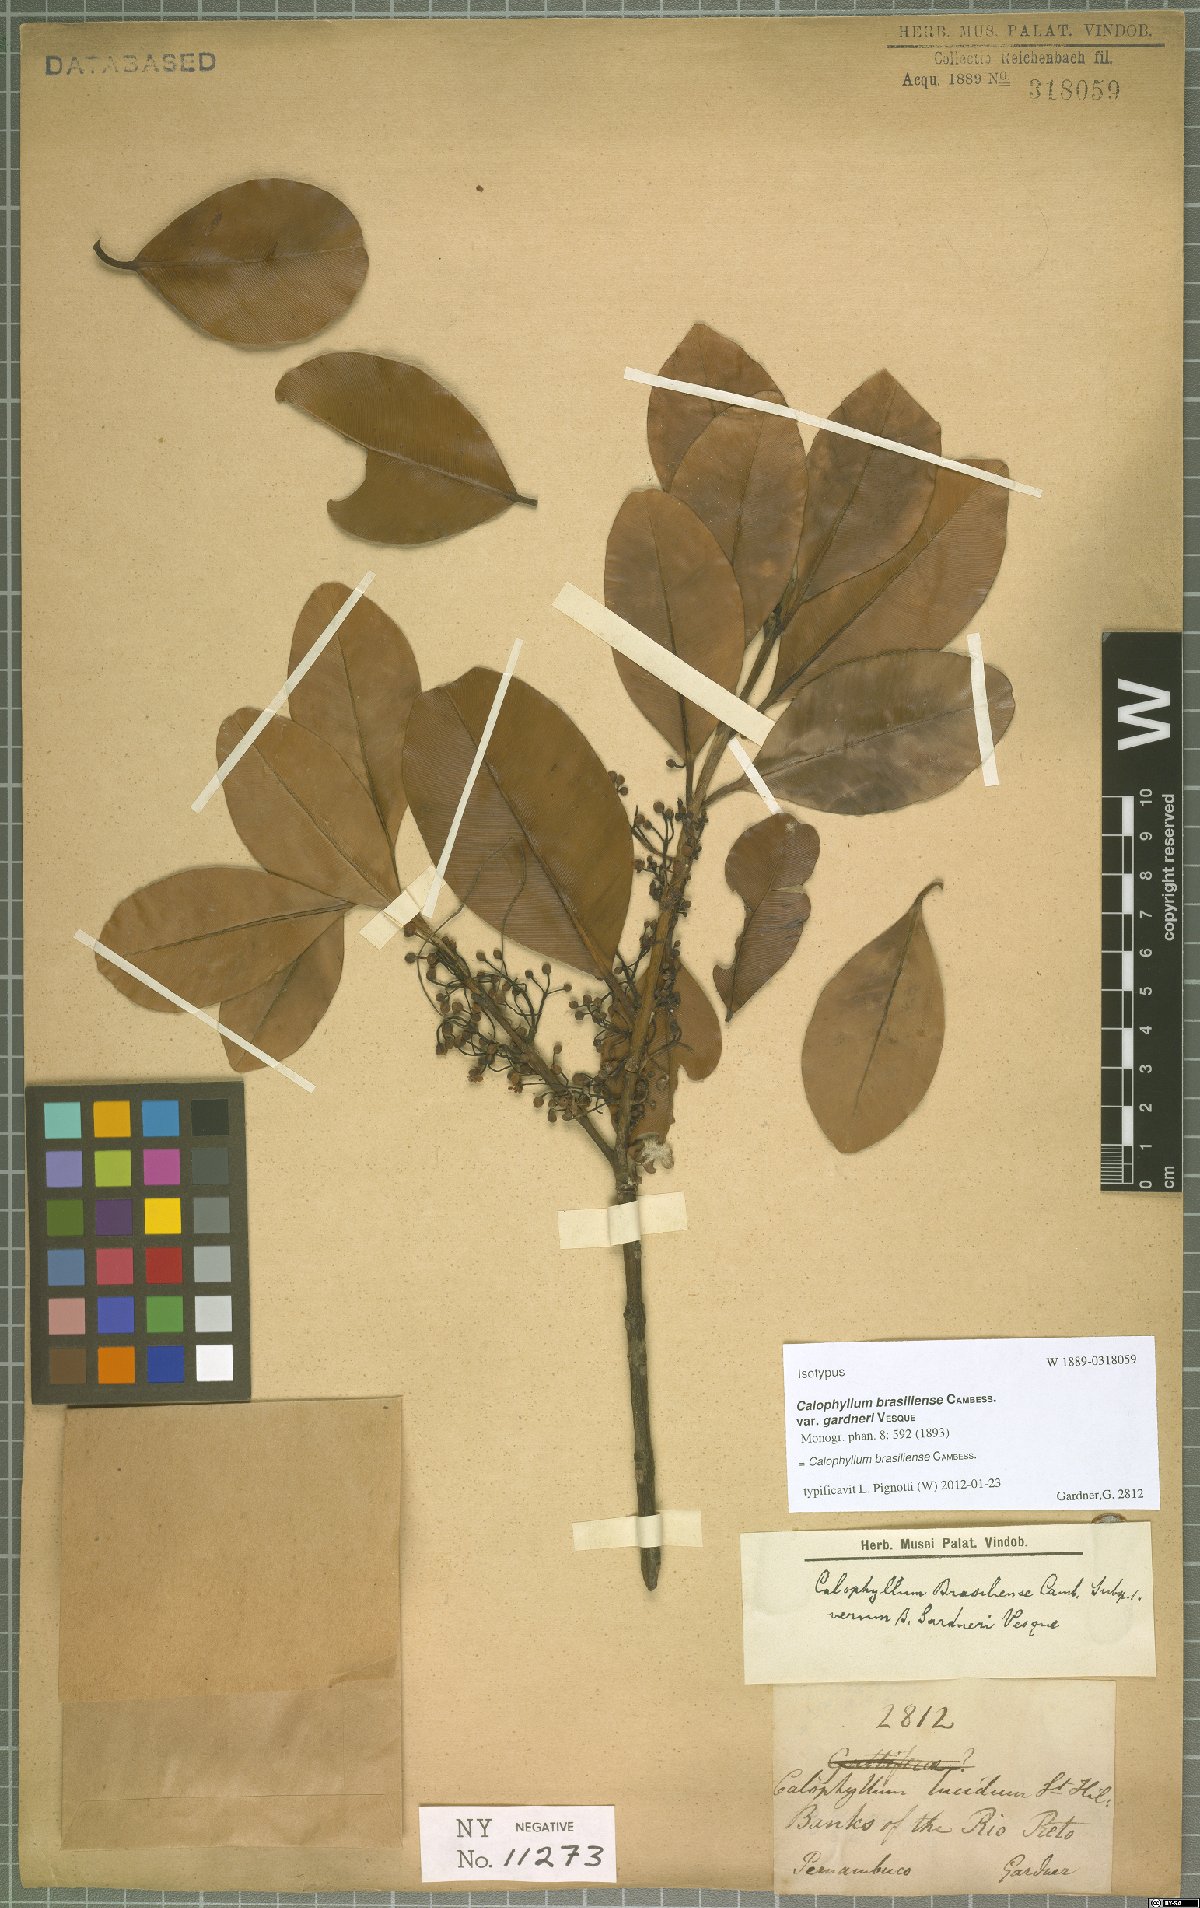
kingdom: Plantae
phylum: Tracheophyta
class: Magnoliopsida
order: Malpighiales
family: Calophyllaceae
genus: Calophyllum
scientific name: Calophyllum brasiliense
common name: Santa maria
